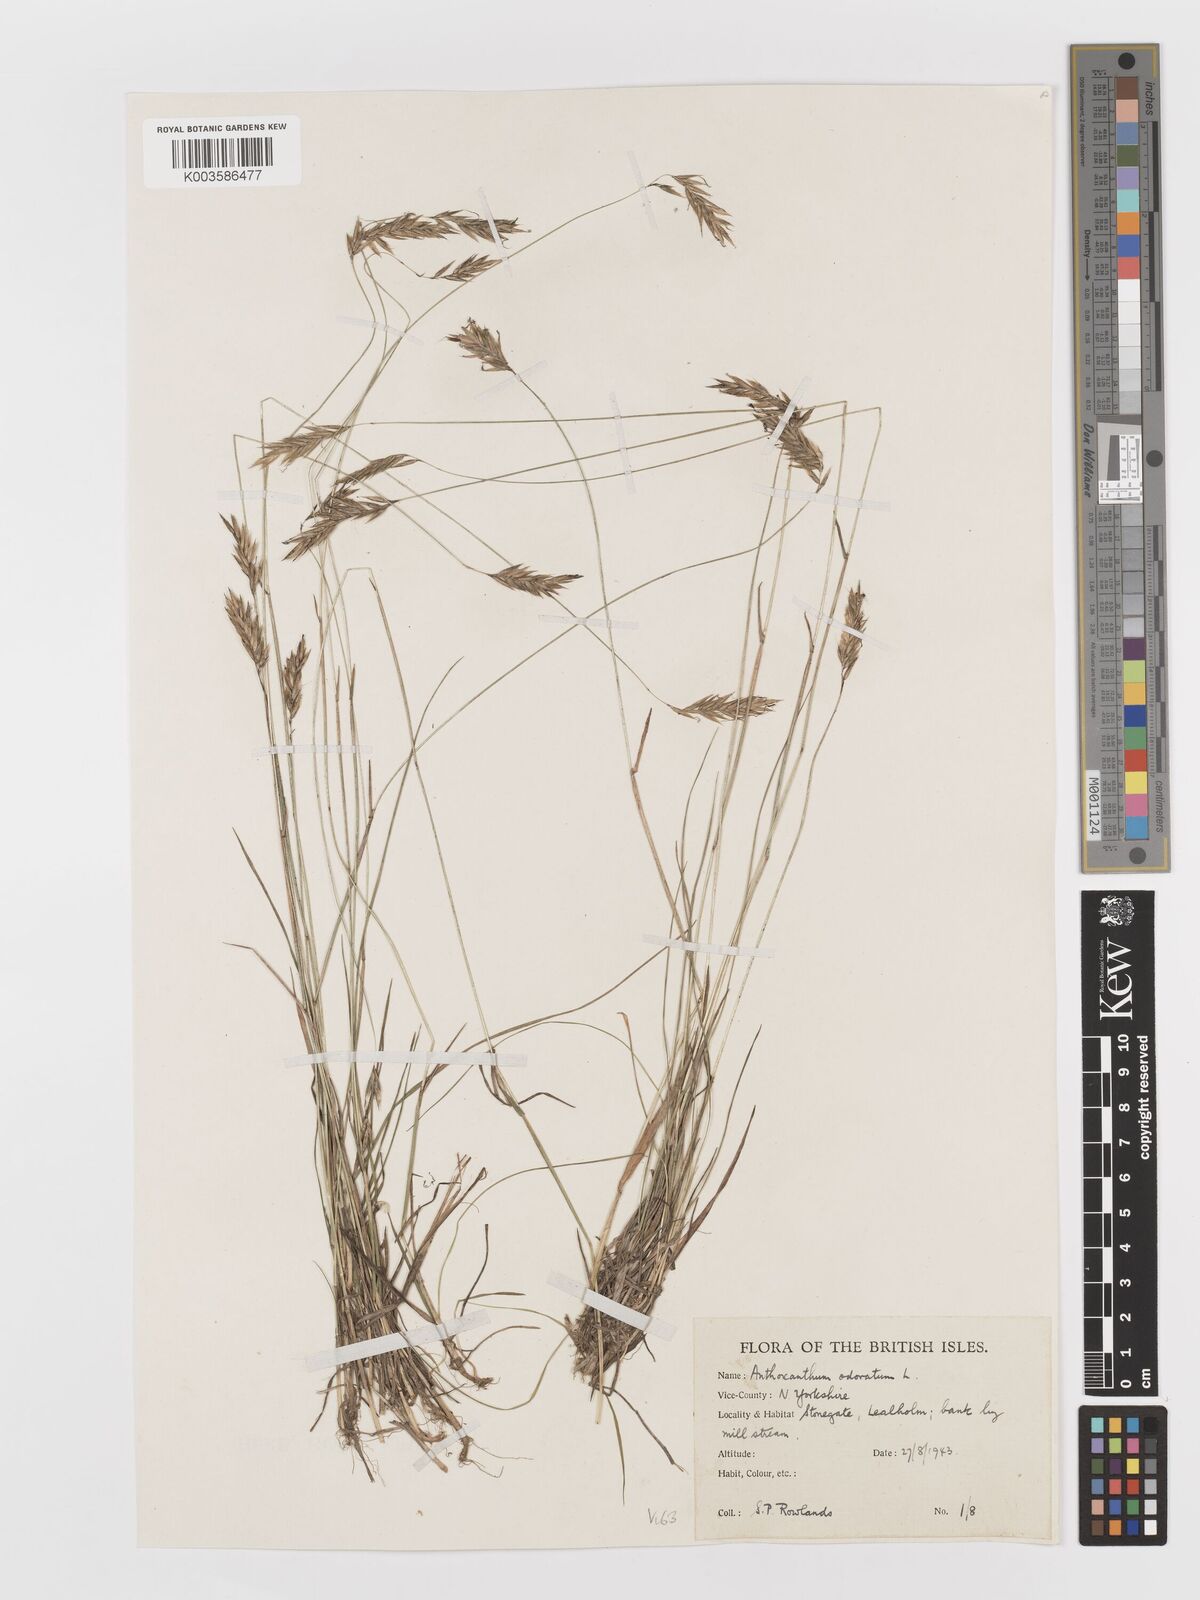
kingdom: Plantae
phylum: Tracheophyta
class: Liliopsida
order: Poales
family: Poaceae
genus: Anthoxanthum
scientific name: Anthoxanthum odoratum
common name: Sweet vernalgrass
